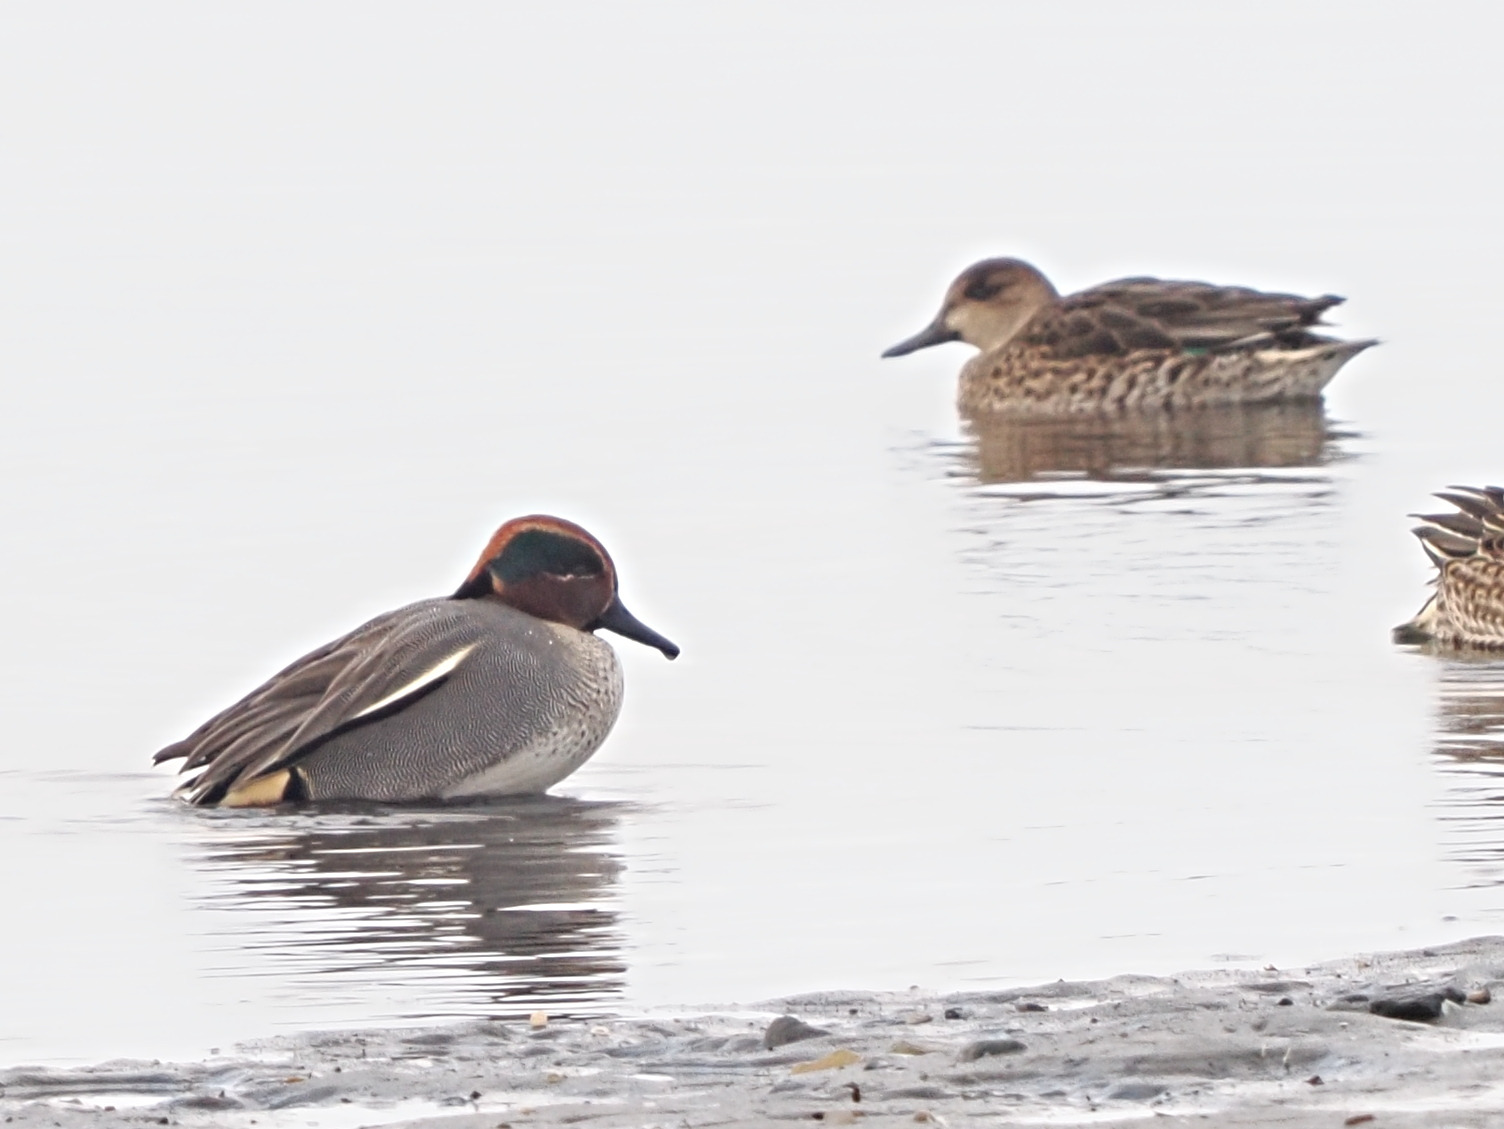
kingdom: Animalia
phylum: Chordata
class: Aves
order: Anseriformes
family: Anatidae
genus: Anas
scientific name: Anas crecca
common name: Krikand
